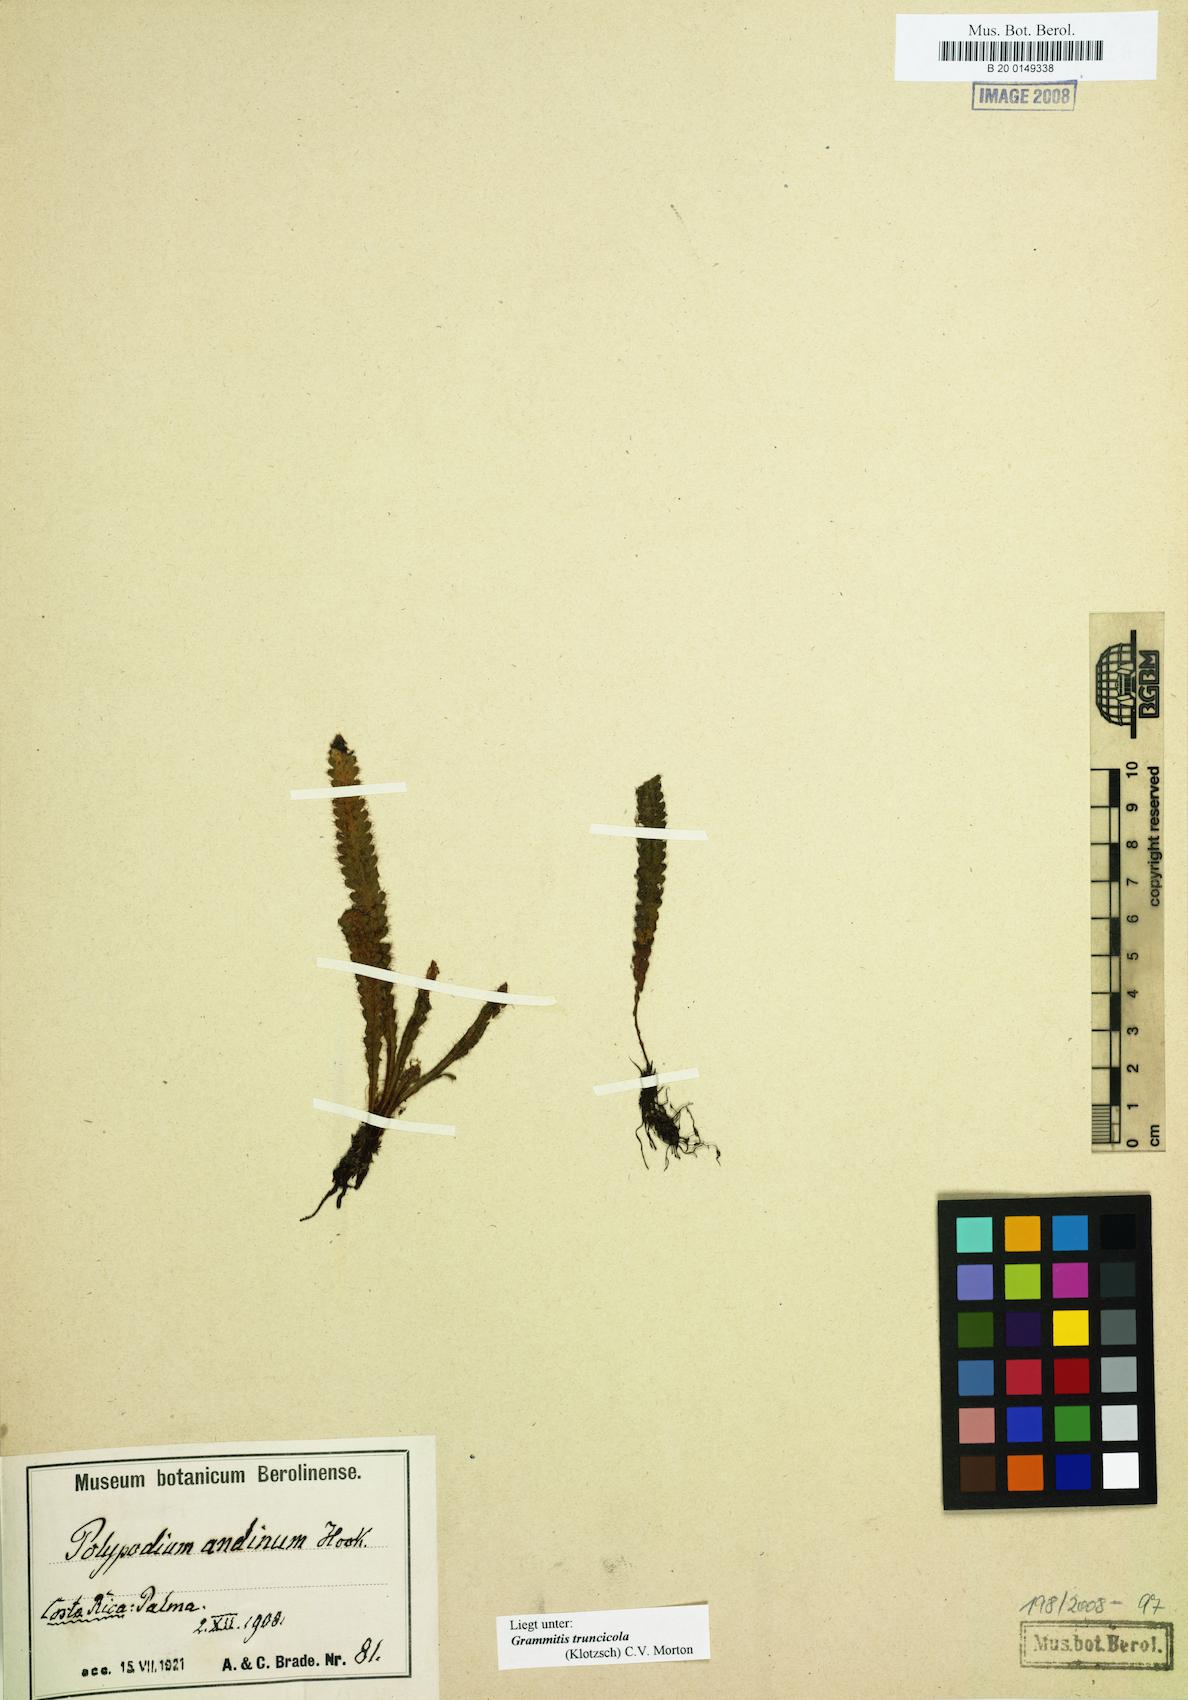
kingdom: Plantae
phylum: Tracheophyta
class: Polypodiopsida
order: Polypodiales
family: Polypodiaceae
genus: Moranopteris
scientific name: Moranopteris truncicola
